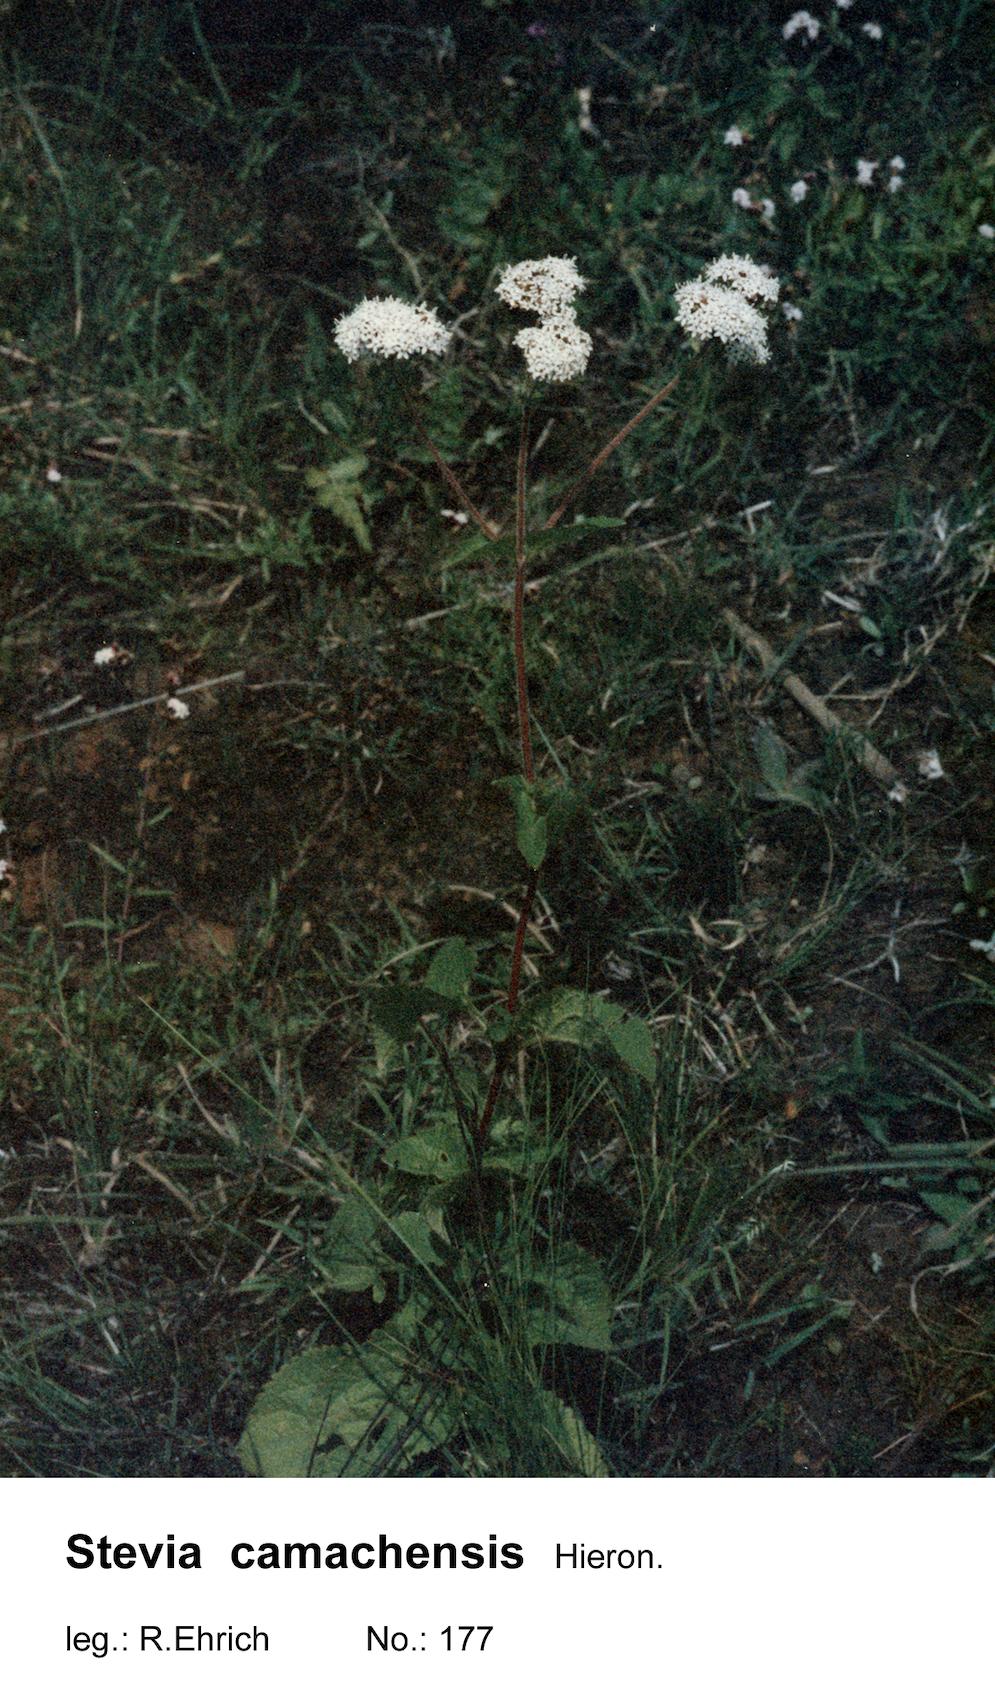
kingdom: Plantae
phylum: Tracheophyta
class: Magnoliopsida
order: Asterales
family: Asteraceae
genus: Stevia
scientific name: Stevia camachensis
